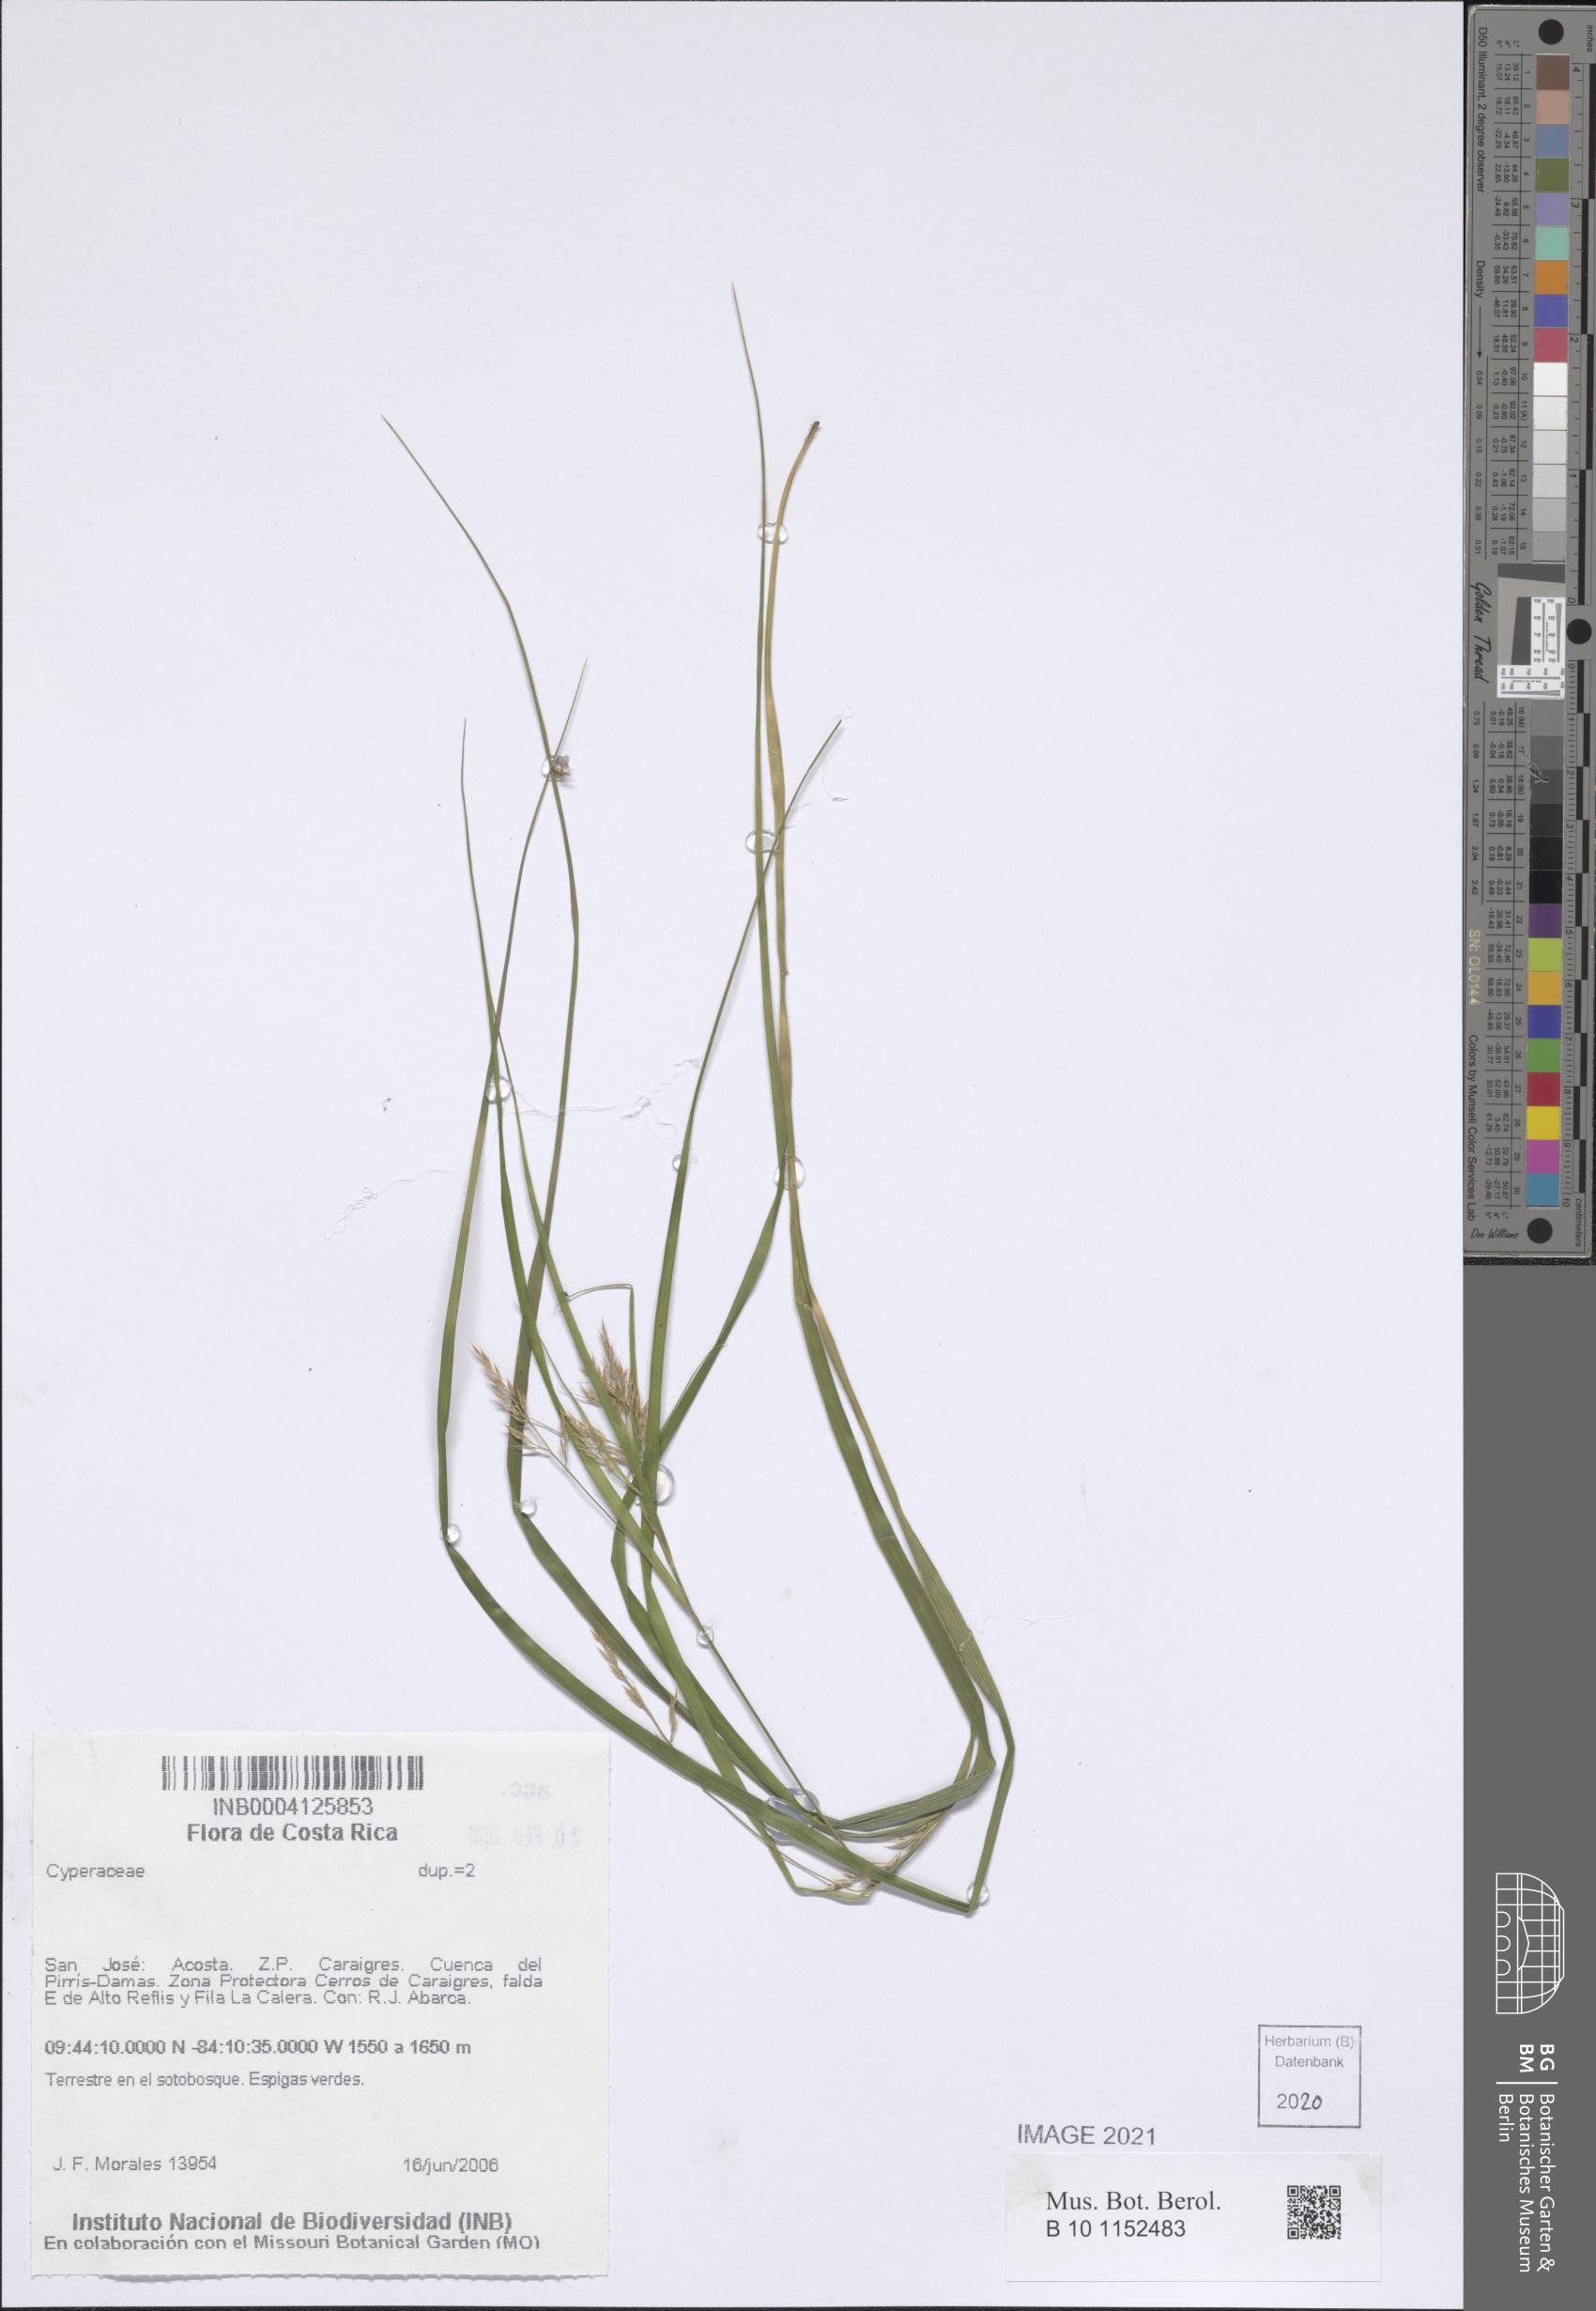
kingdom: Plantae
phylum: Tracheophyta
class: Liliopsida
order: Poales
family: Cyperaceae
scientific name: Cyperaceae
